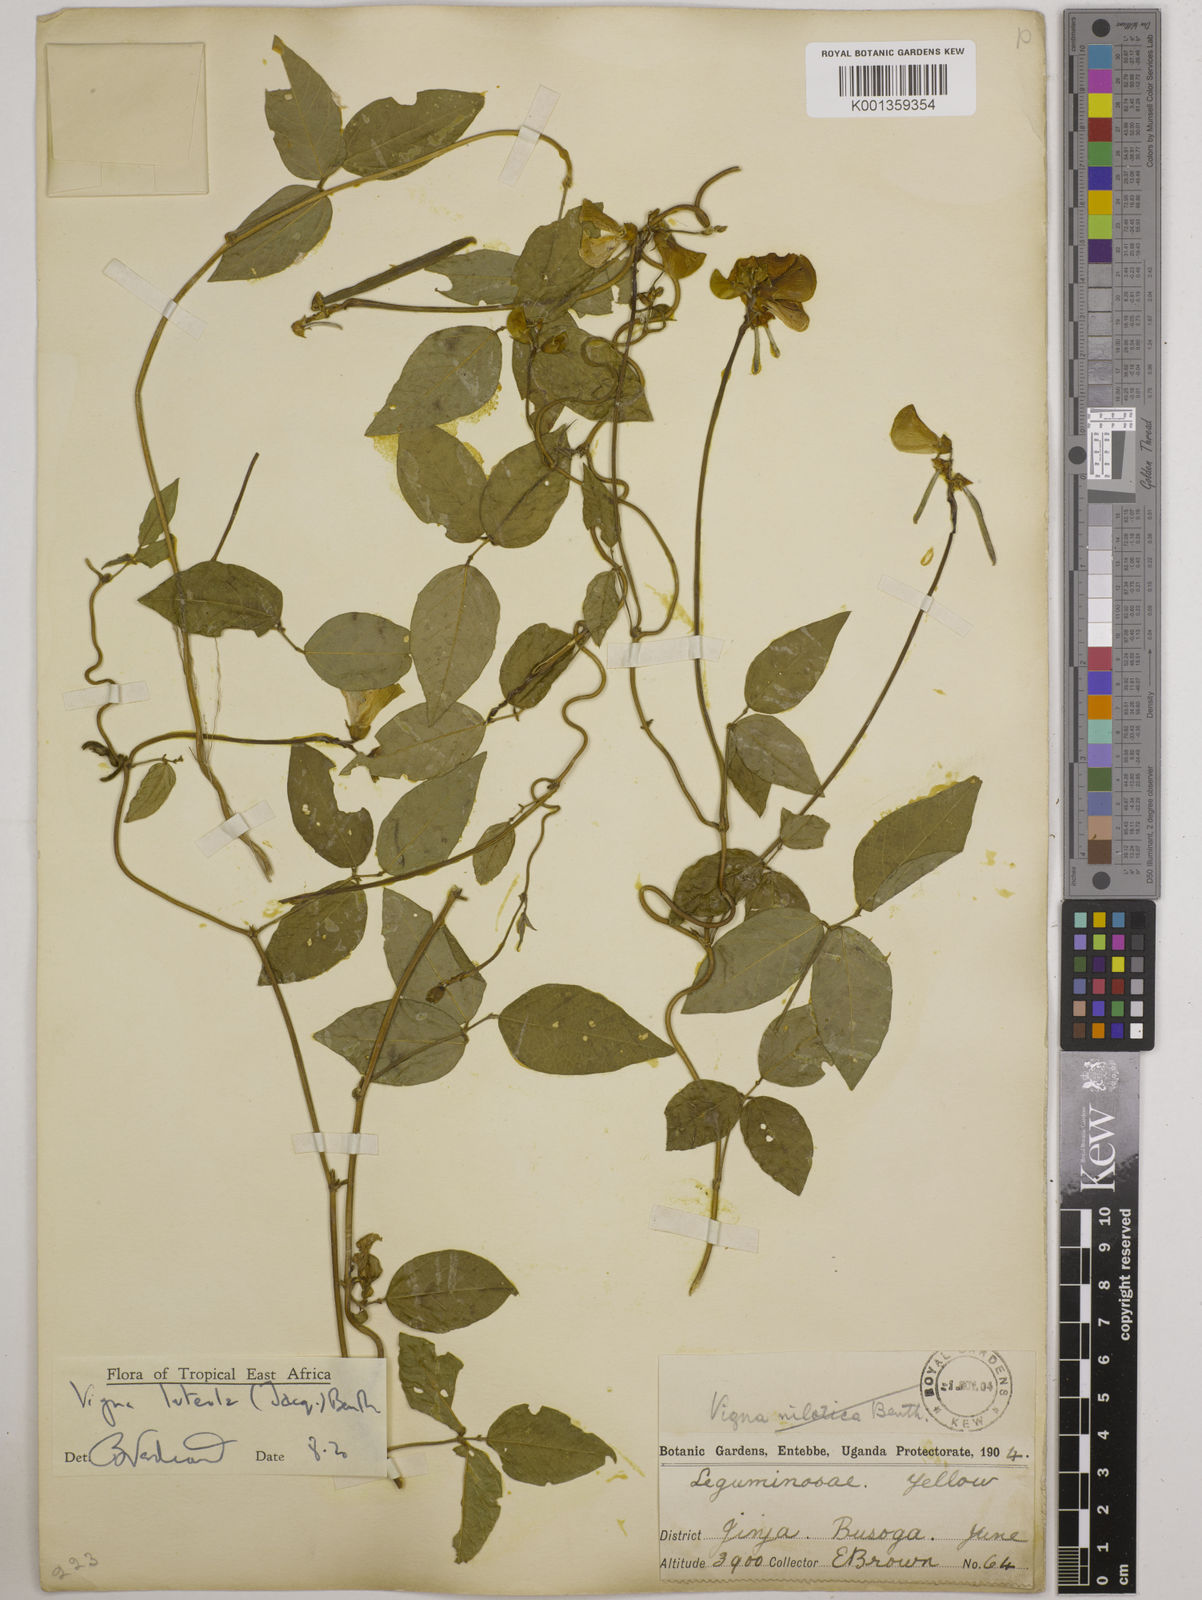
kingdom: Plantae
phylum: Tracheophyta
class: Magnoliopsida
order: Fabales
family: Fabaceae
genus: Vigna
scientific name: Vigna luteola
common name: Hairypod cowpea
